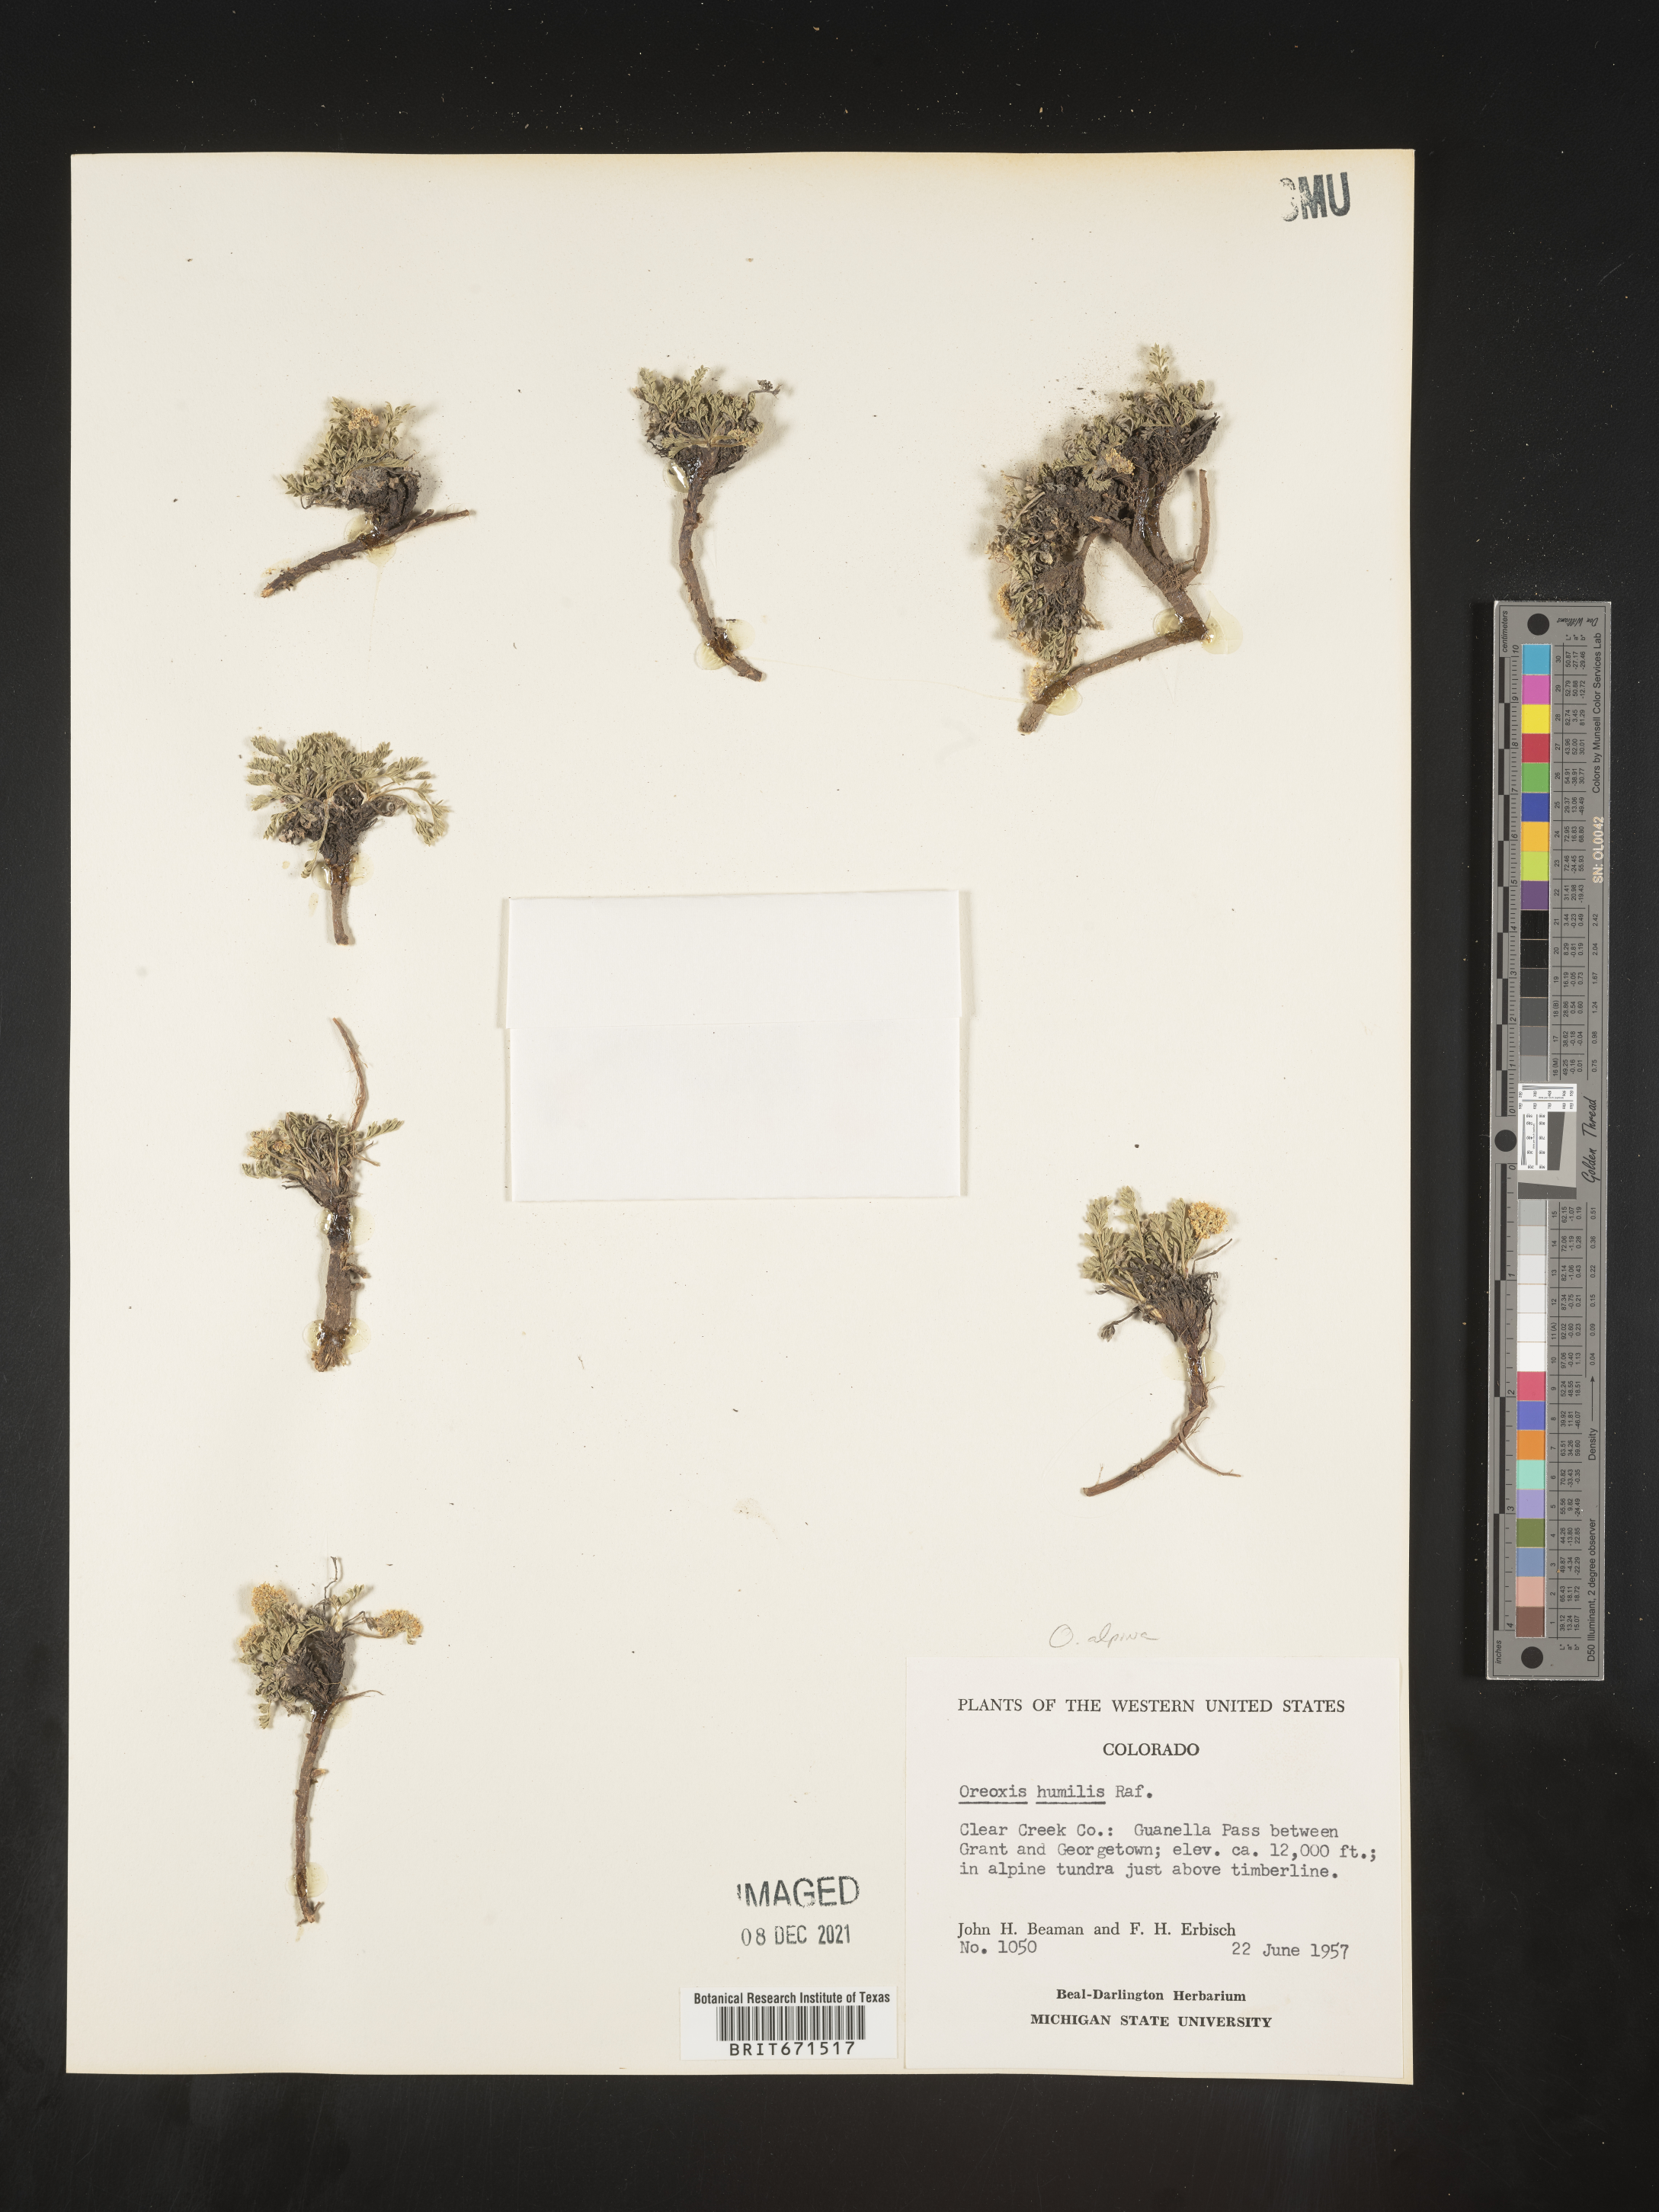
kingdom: Plantae
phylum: Tracheophyta
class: Magnoliopsida
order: Apiales
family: Apiaceae
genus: Oreoxis
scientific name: Oreoxis alpina
